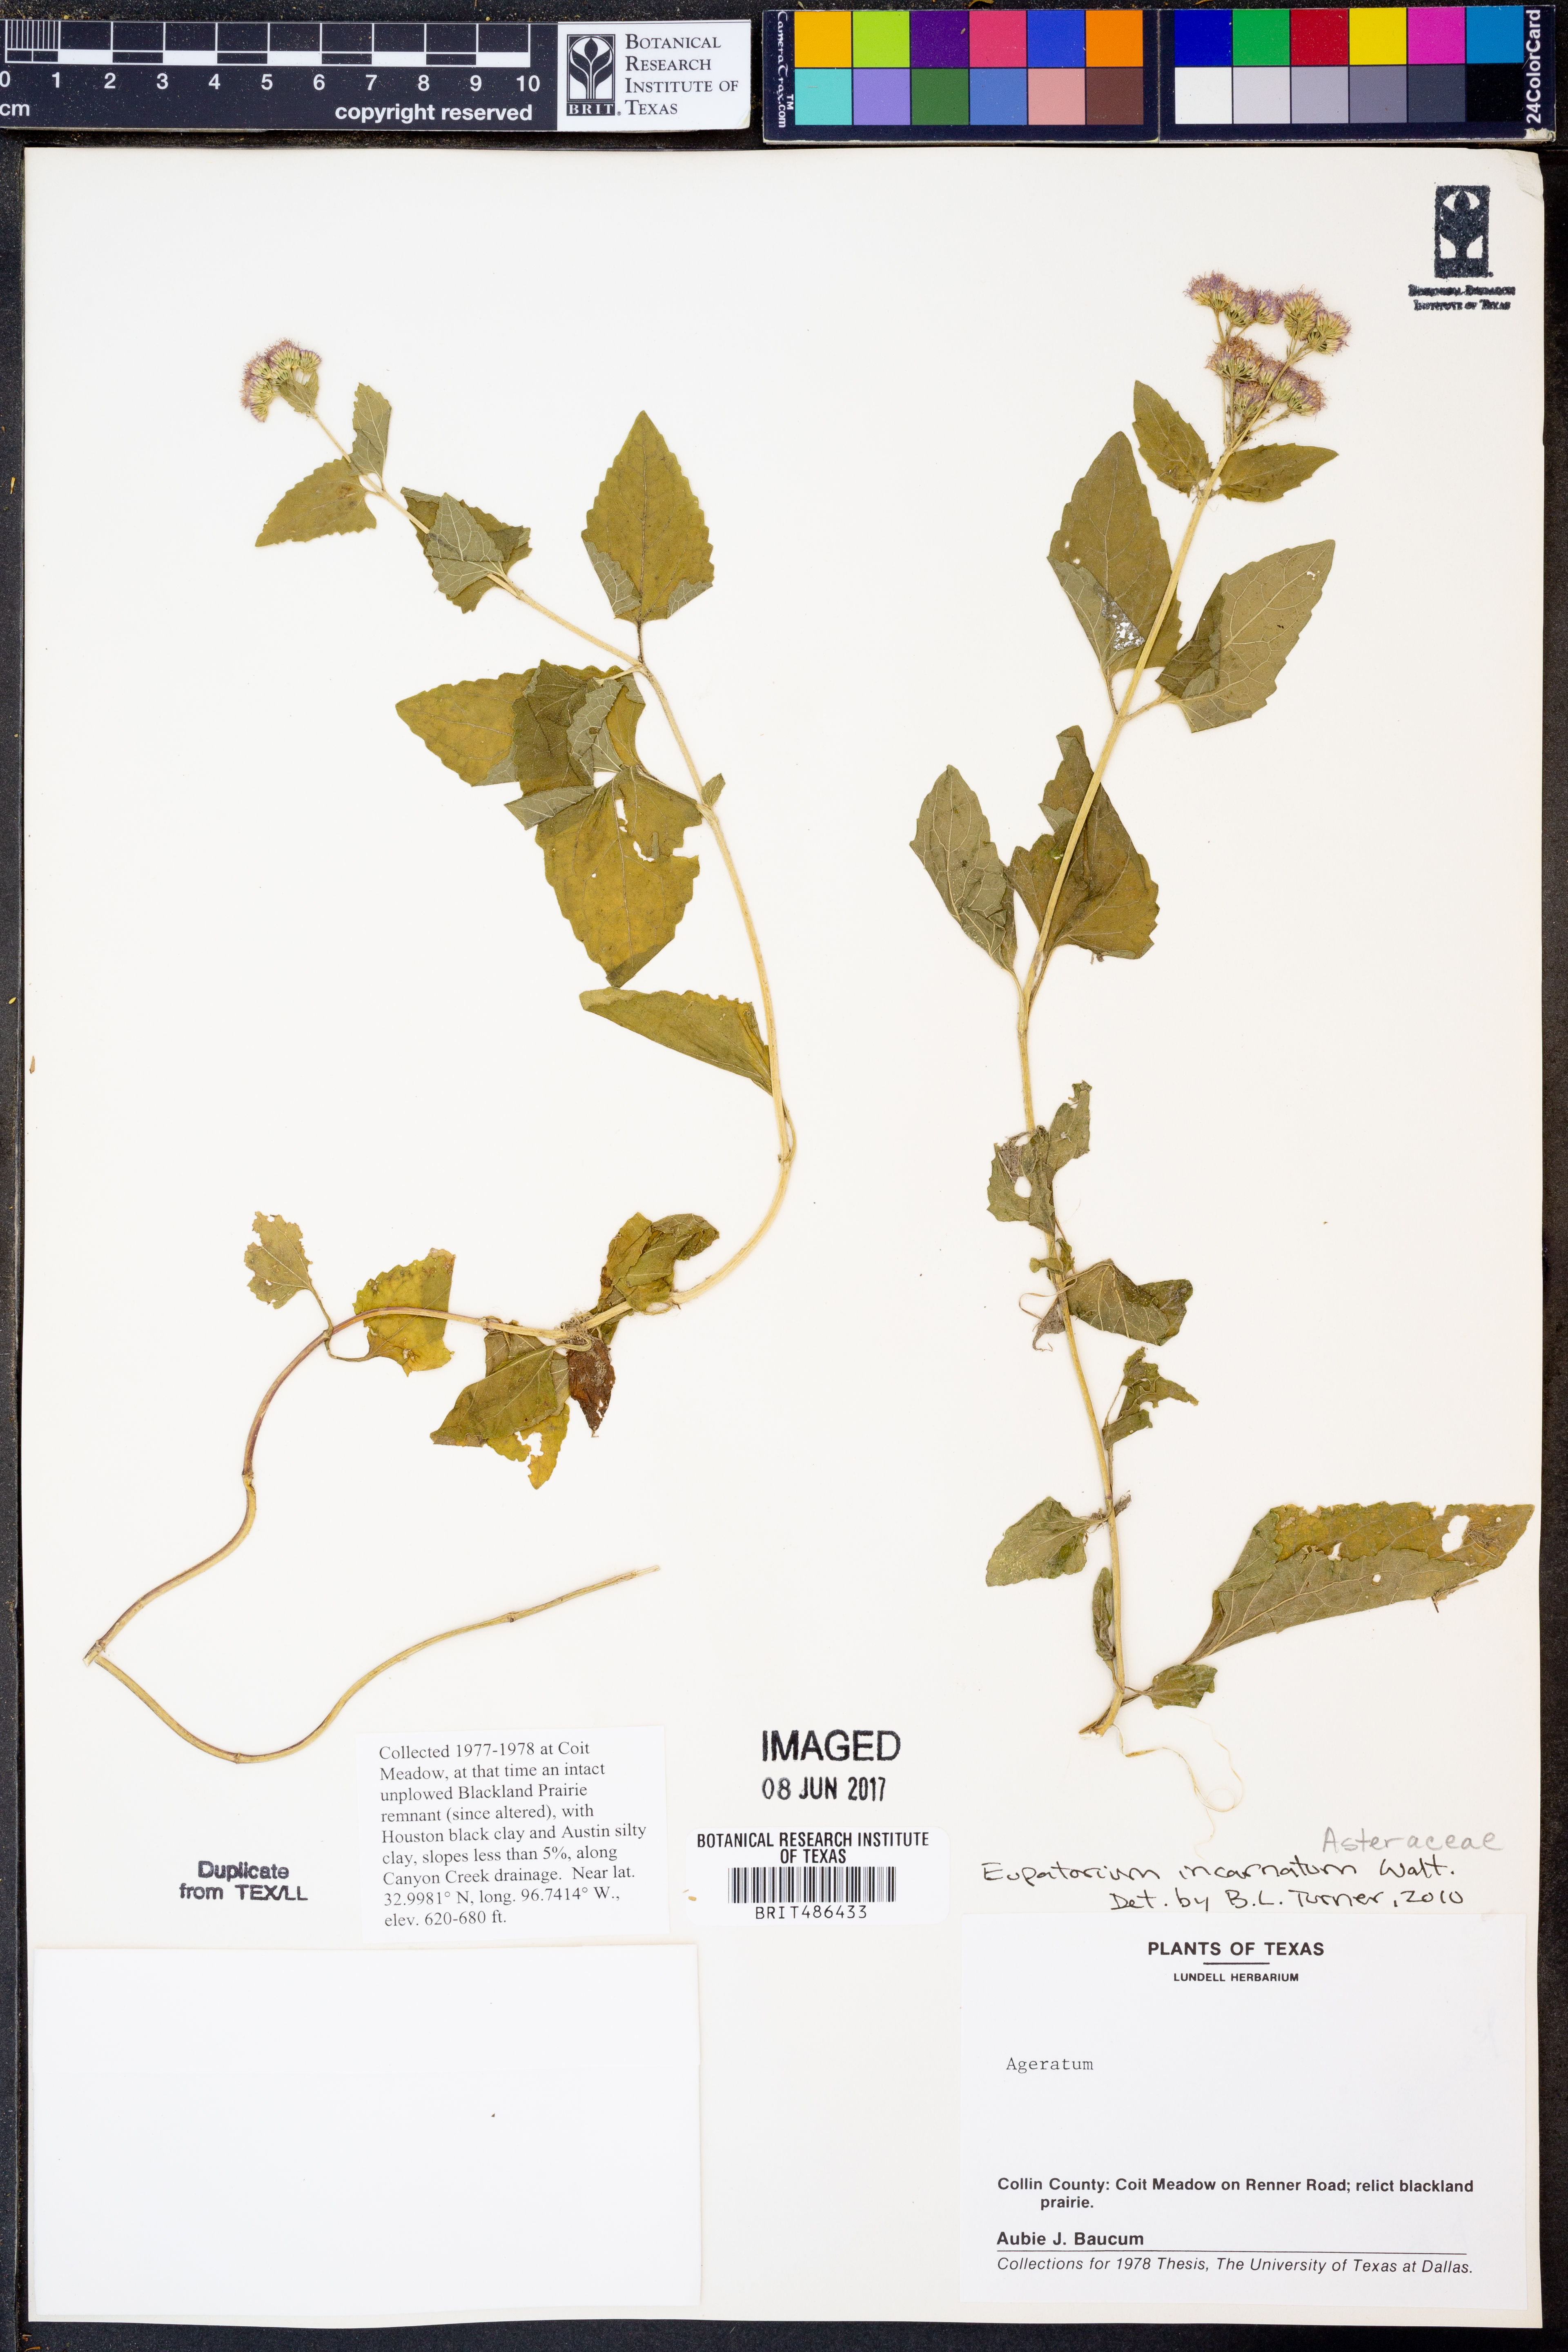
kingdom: Plantae
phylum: Tracheophyta
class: Magnoliopsida
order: Asterales
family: Asteraceae
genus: Fleischmannia
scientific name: Fleischmannia incarnata
